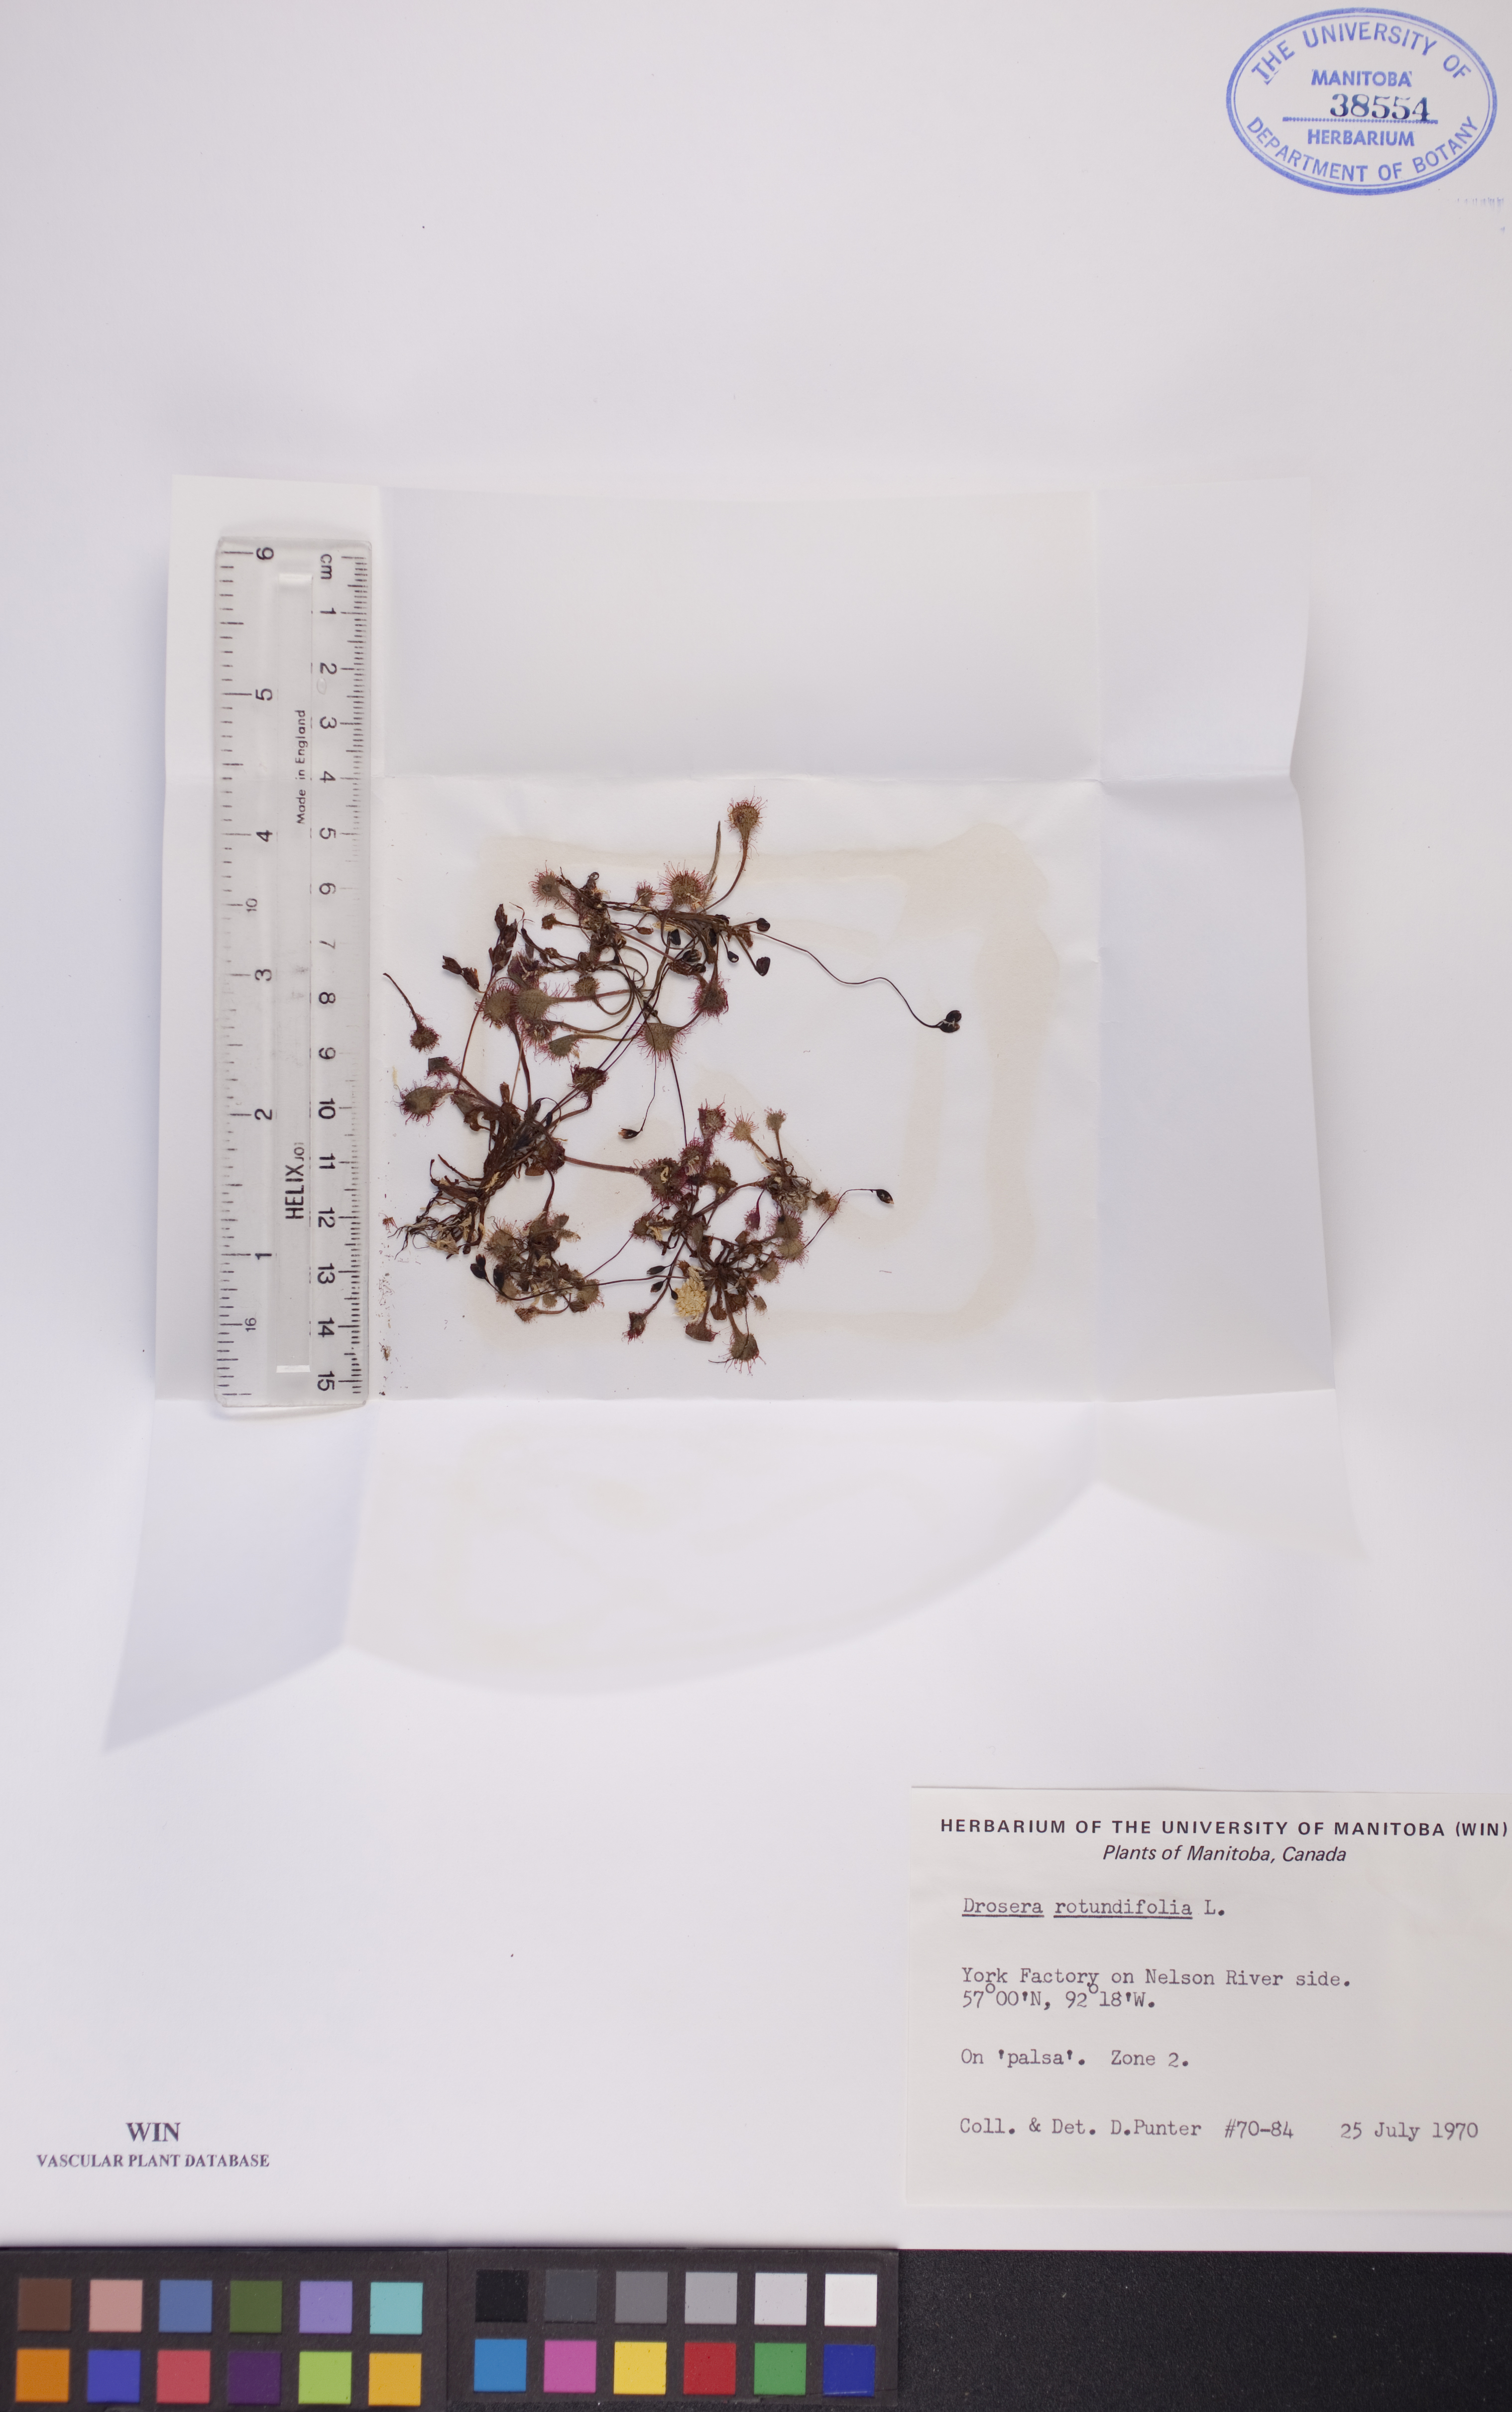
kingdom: Plantae
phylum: Tracheophyta
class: Magnoliopsida
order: Caryophyllales
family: Droseraceae
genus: Drosera
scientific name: Drosera rotundifolia
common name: Round-leaved sundew
